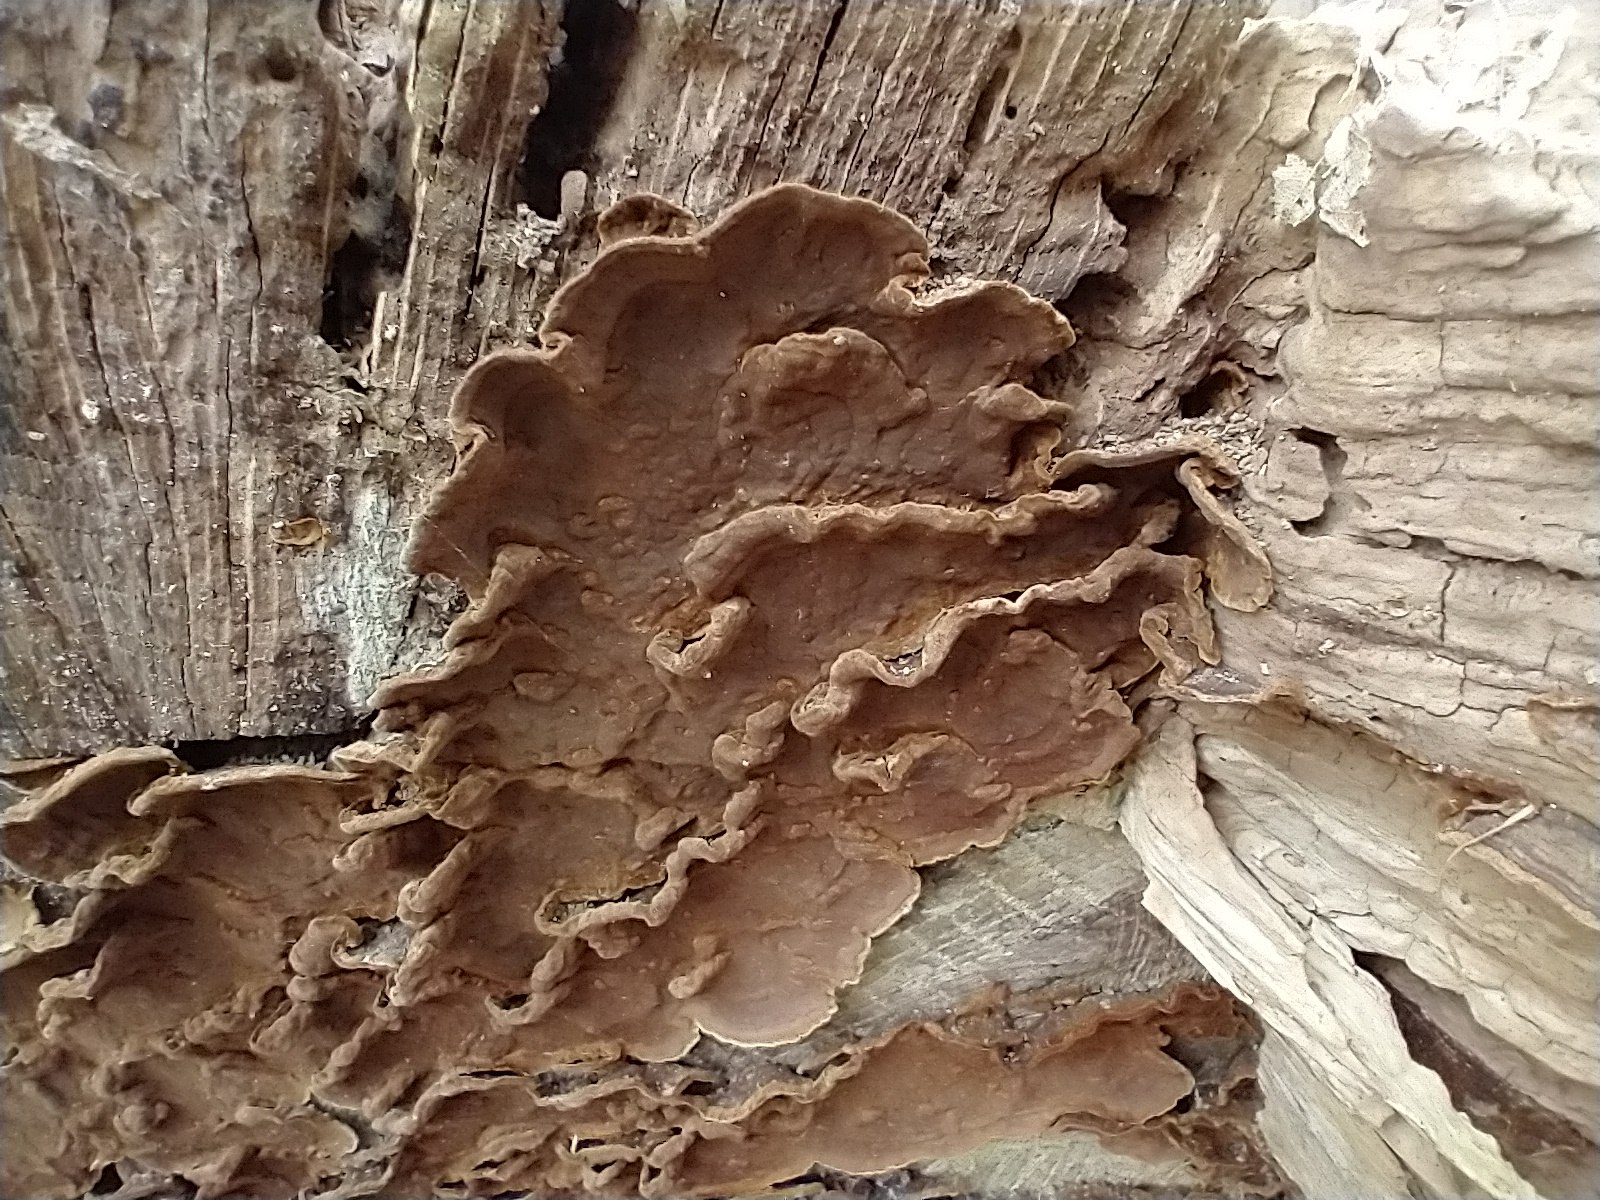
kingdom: Fungi
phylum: Basidiomycota
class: Agaricomycetes
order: Hymenochaetales
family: Hymenochaetaceae
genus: Hymenochaete
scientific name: Hymenochaete rubiginosa
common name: stiv ruslædersvamp
